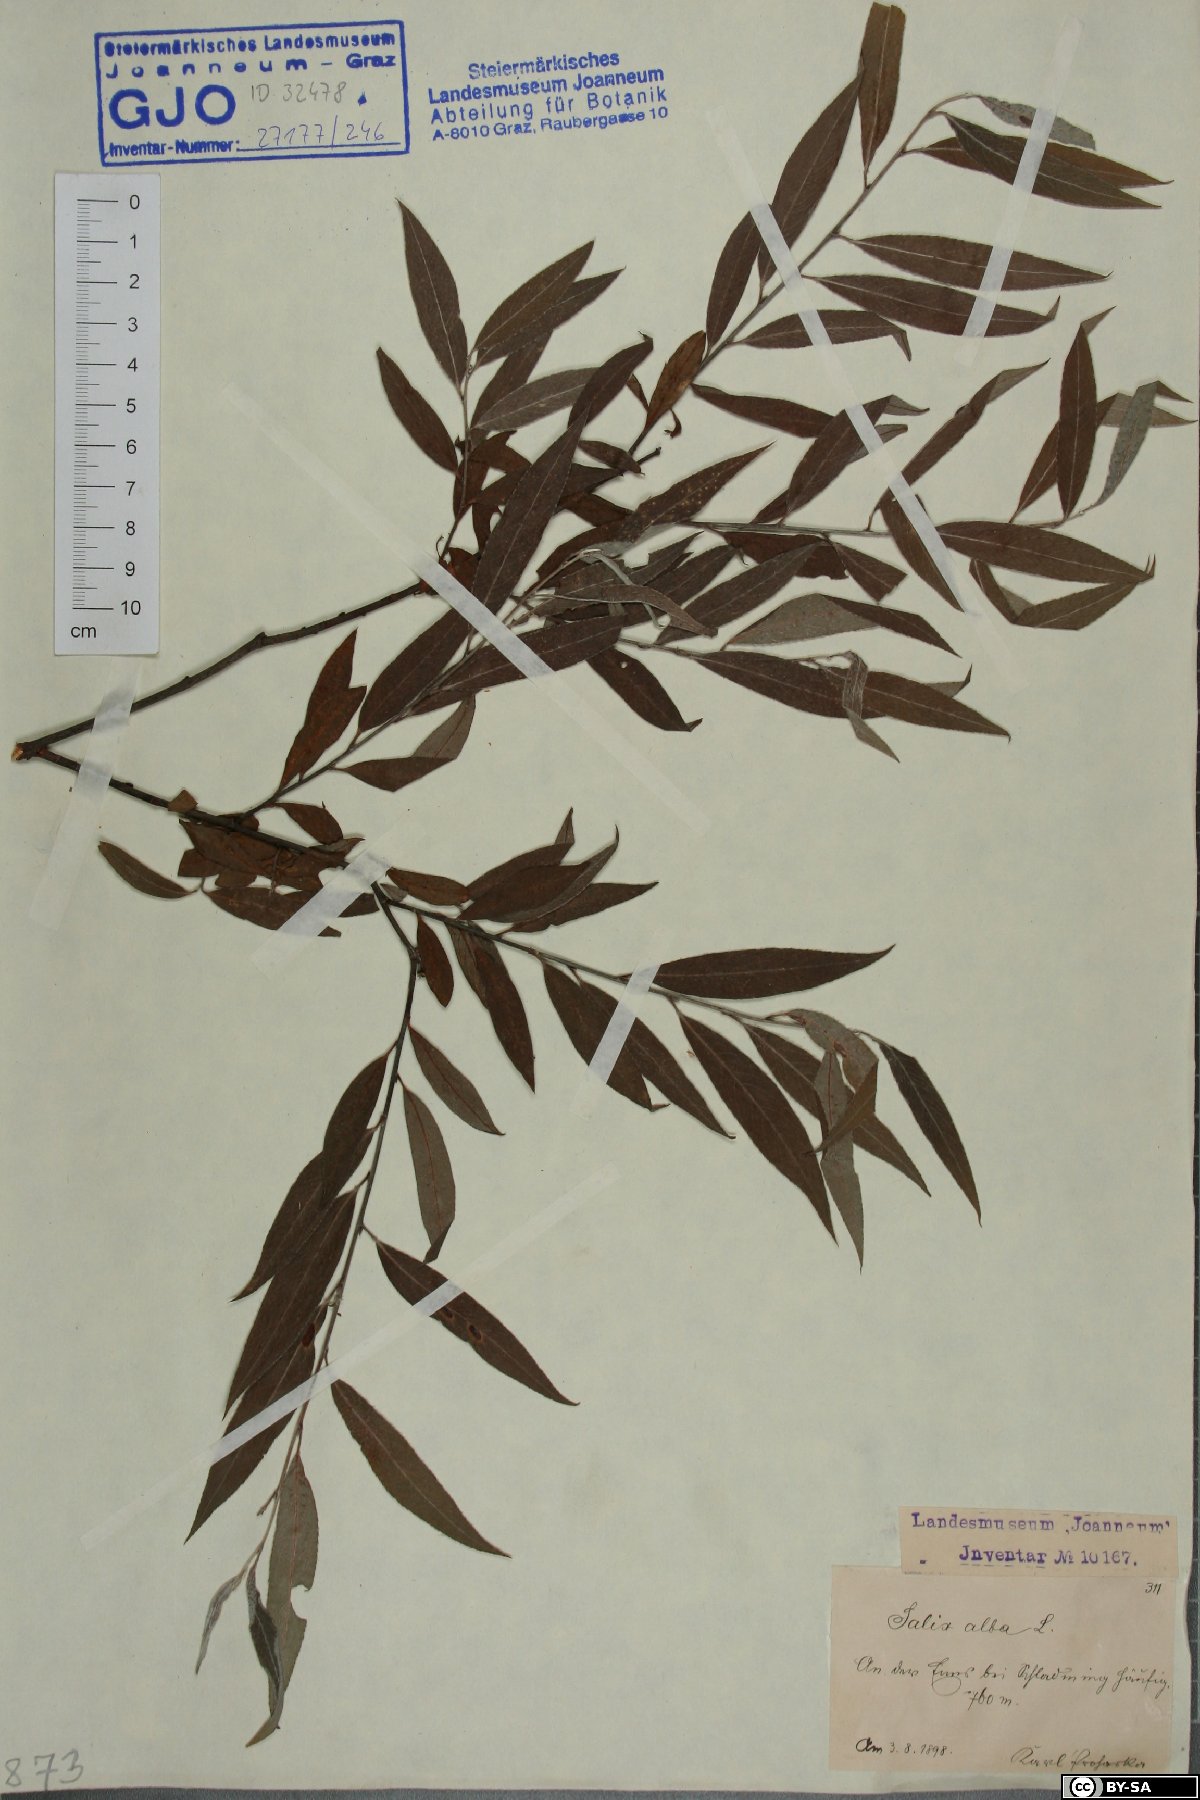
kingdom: Plantae
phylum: Tracheophyta
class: Magnoliopsida
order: Malpighiales
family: Salicaceae
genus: Salix
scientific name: Salix alba
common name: White willow
